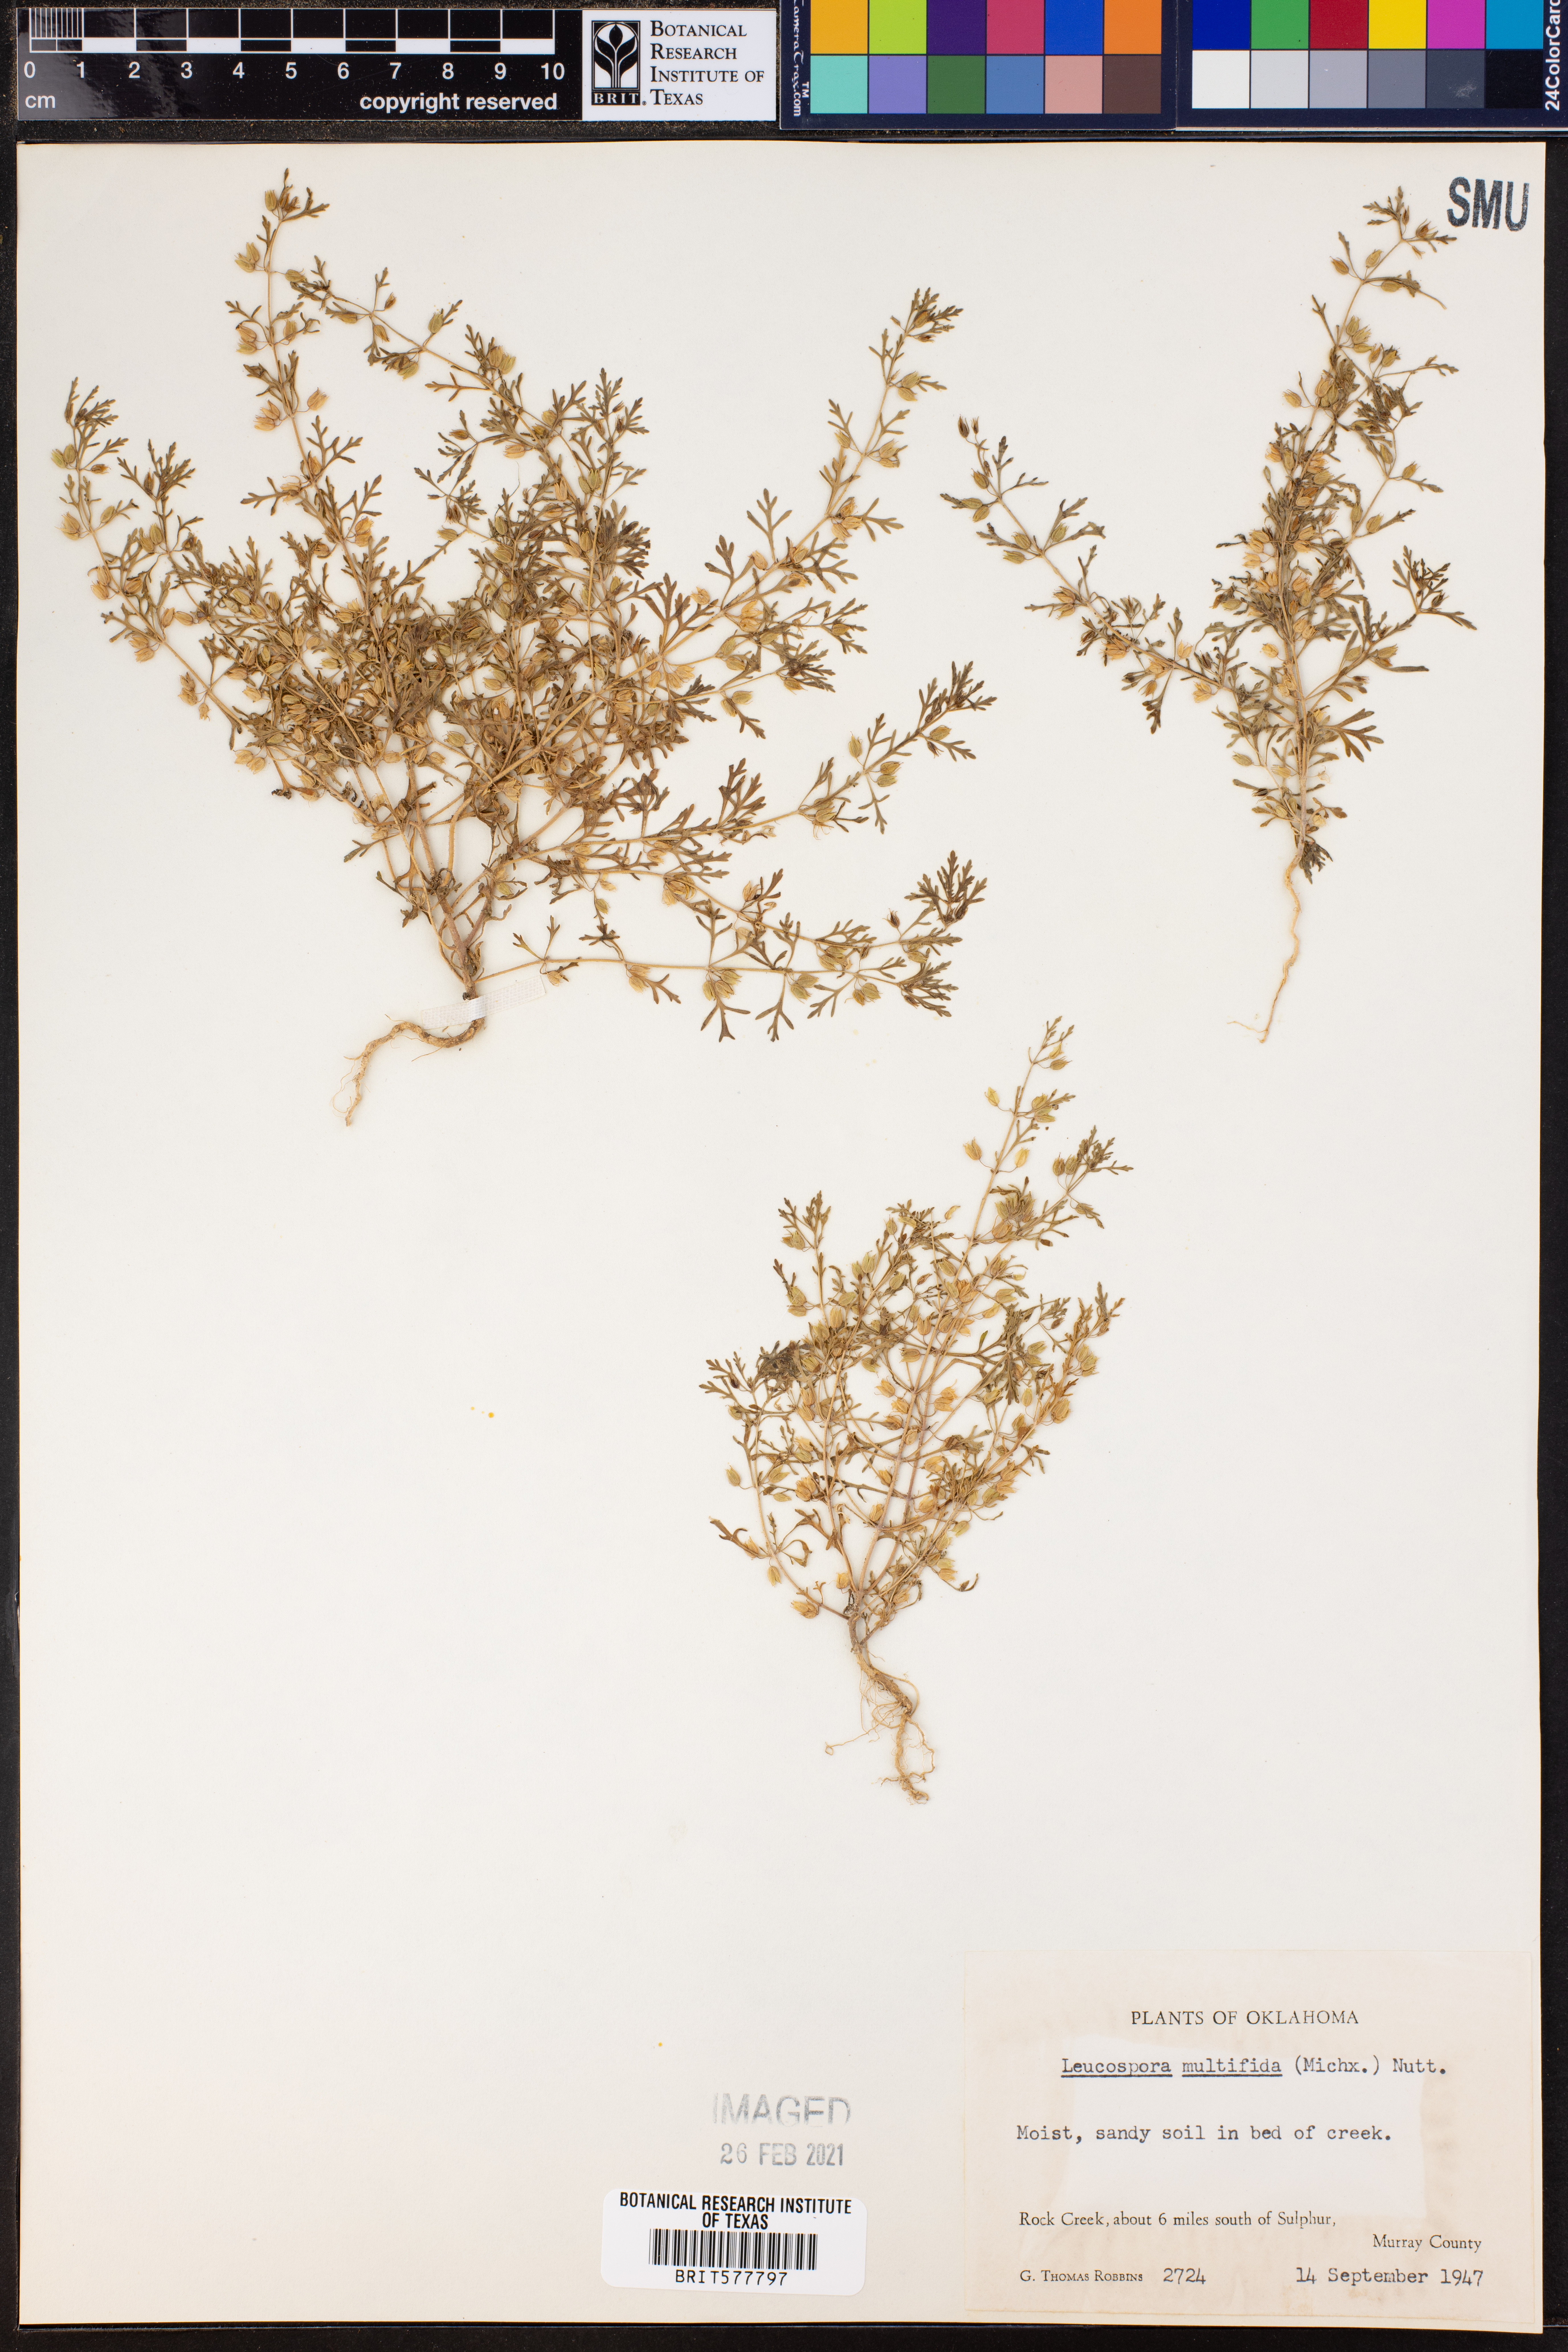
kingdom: Plantae
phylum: Tracheophyta
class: Magnoliopsida
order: Lamiales
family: Plantaginaceae
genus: Leucospora
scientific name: Leucospora multifida
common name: Narrow-leaf paleseed
